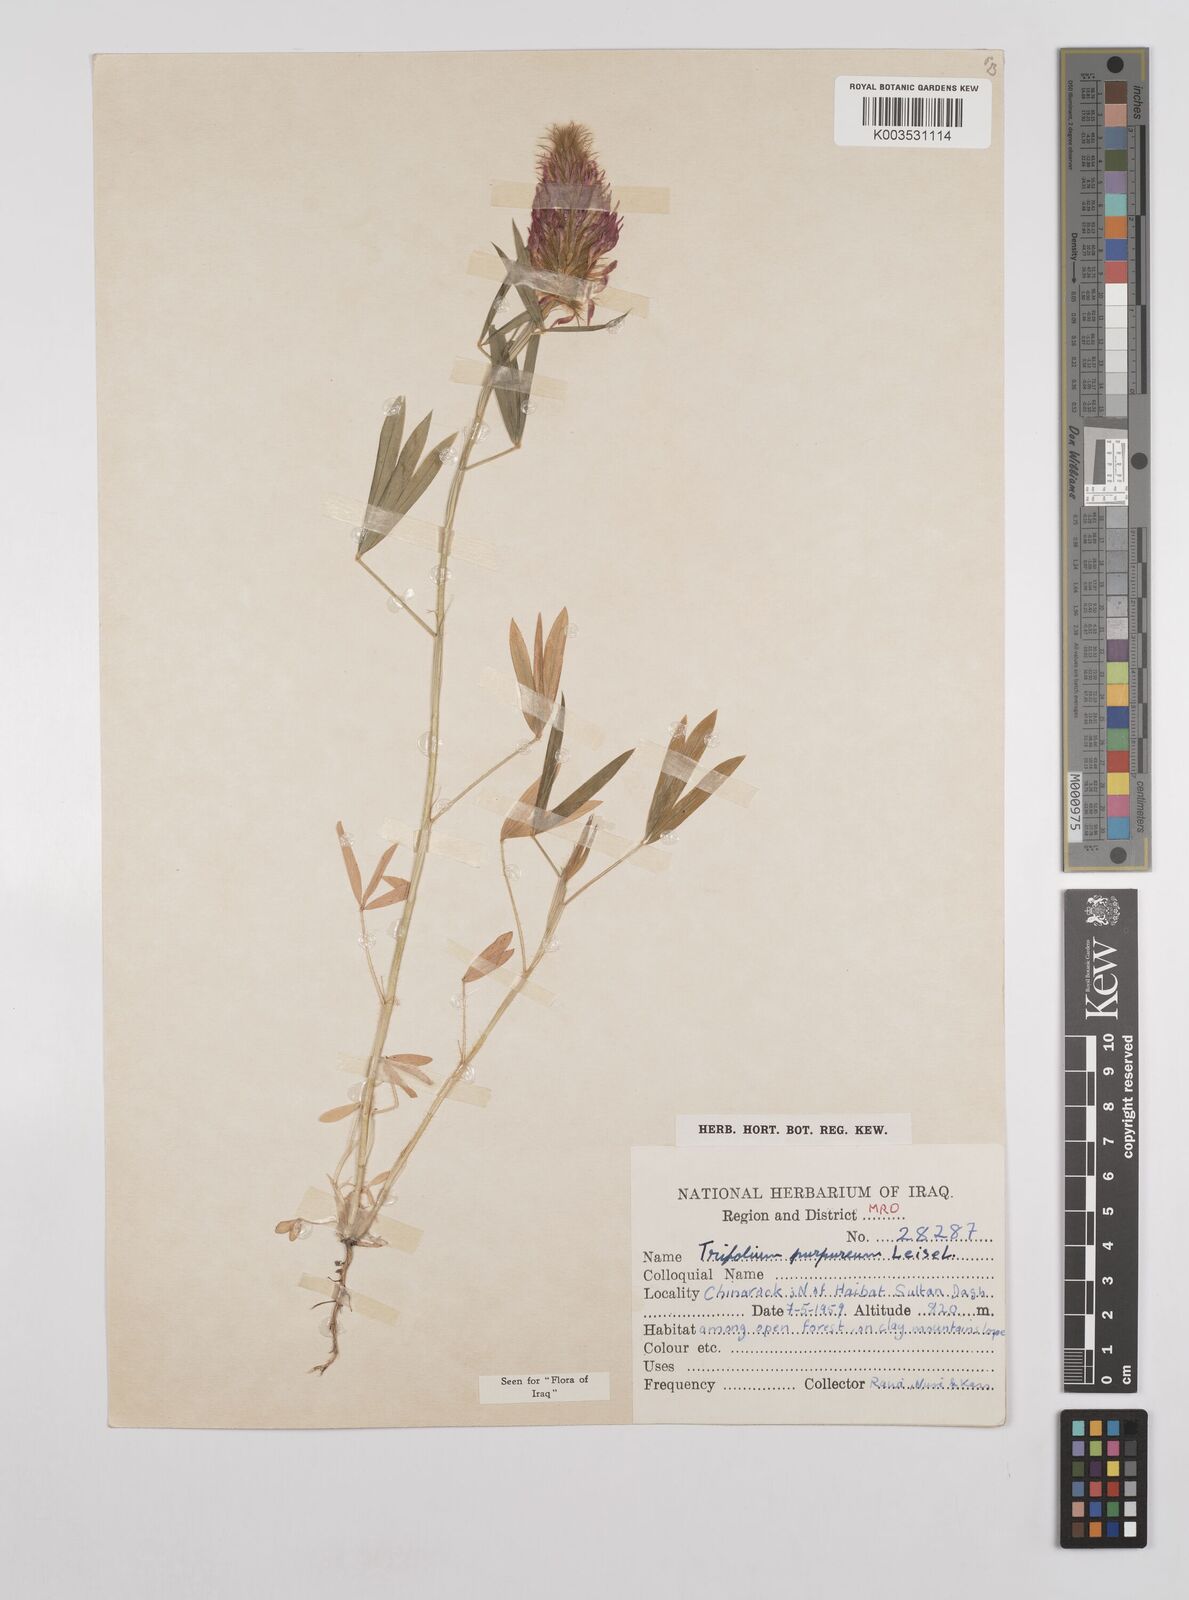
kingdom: Plantae
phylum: Tracheophyta
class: Magnoliopsida
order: Fabales
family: Fabaceae
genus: Trifolium
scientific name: Trifolium purpureum
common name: Purple clover
